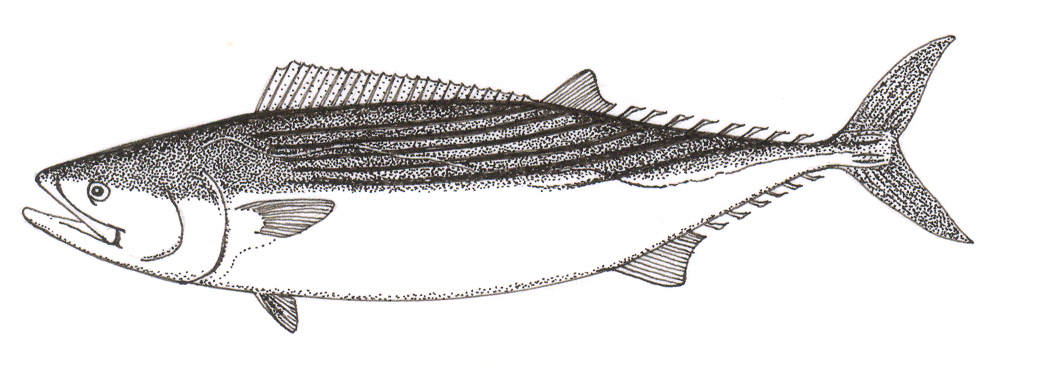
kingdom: Animalia
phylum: Chordata
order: Perciformes
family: Scombridae
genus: Sarda
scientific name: Sarda sarda
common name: Atlantic bonito
